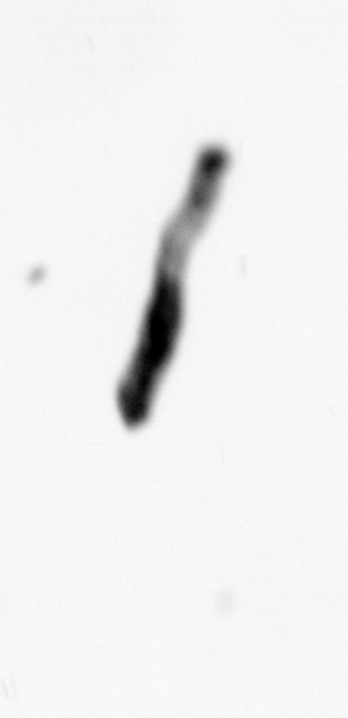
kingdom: Animalia
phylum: Annelida
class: Polychaeta
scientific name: Polychaeta
